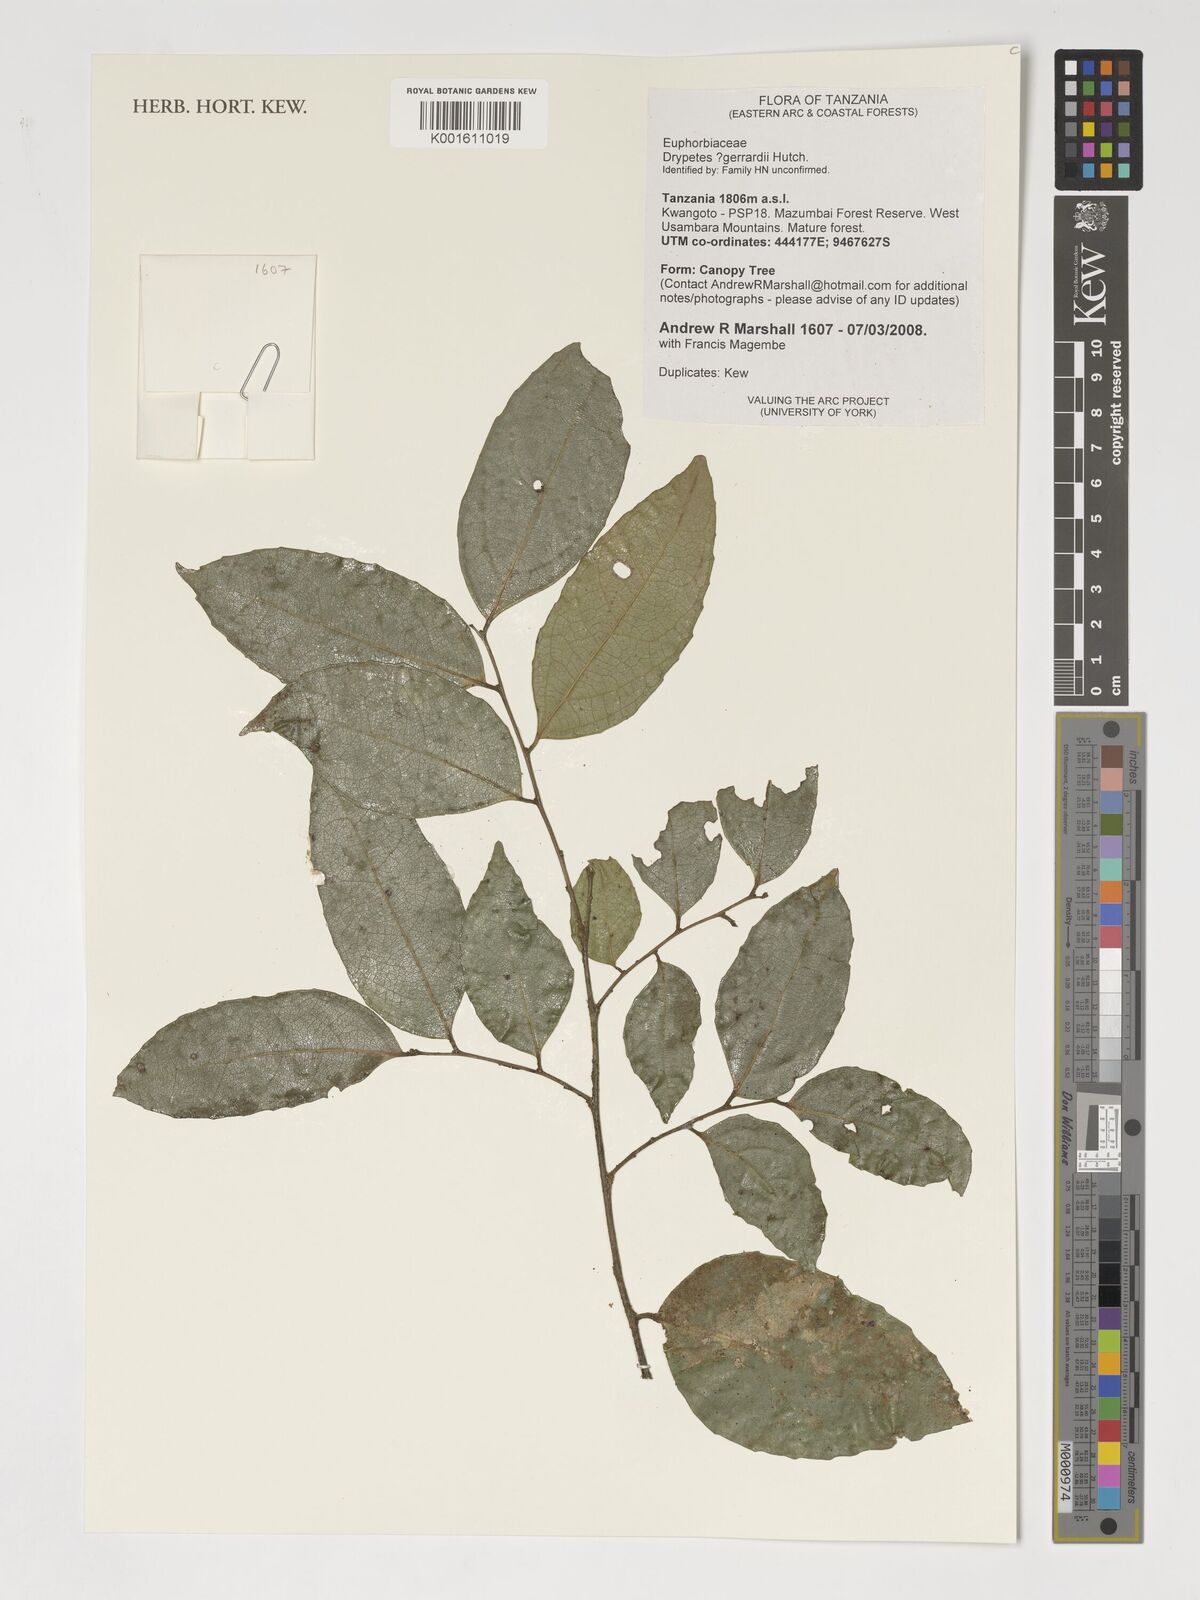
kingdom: Plantae
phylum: Tracheophyta
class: Magnoliopsida
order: Malpighiales
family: Putranjivaceae
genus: Drypetes
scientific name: Drypetes gerrardii
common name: Forest ironplum
